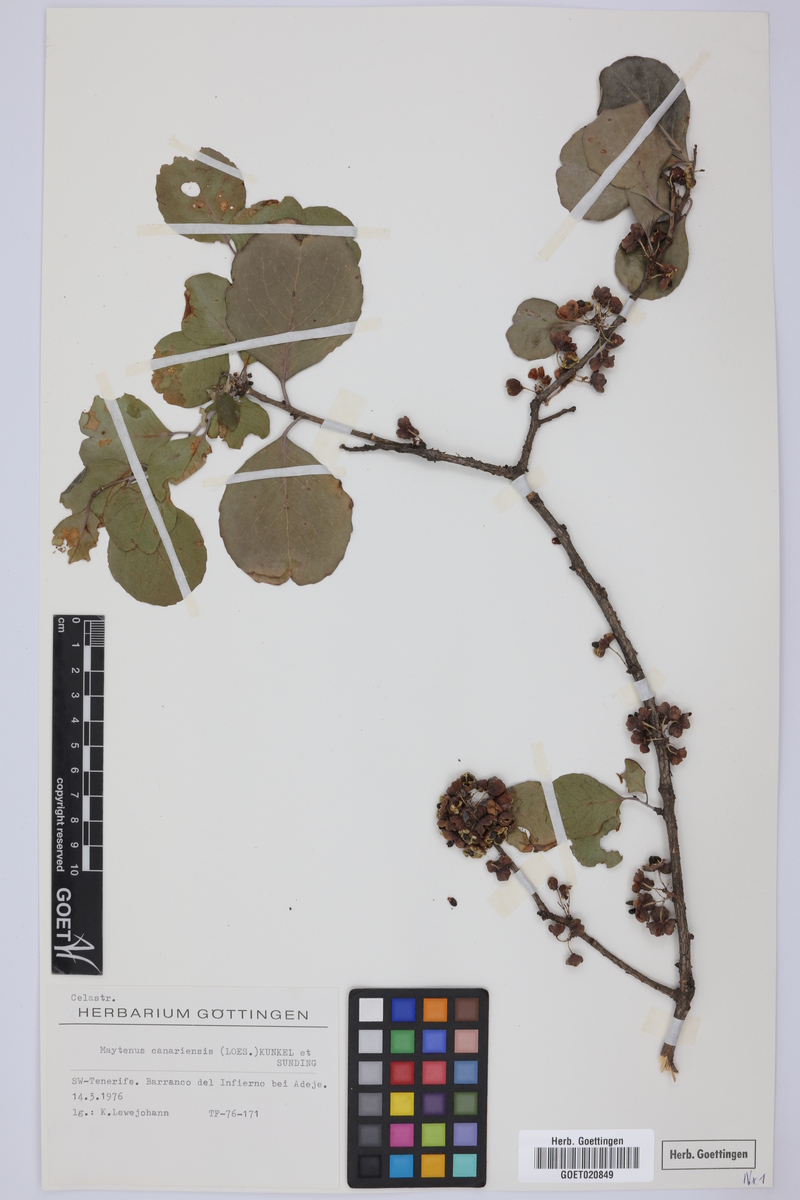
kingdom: Plantae
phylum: Tracheophyta
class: Magnoliopsida
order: Celastrales
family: Celastraceae
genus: Gymnosporia
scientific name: Gymnosporia cassinoides
